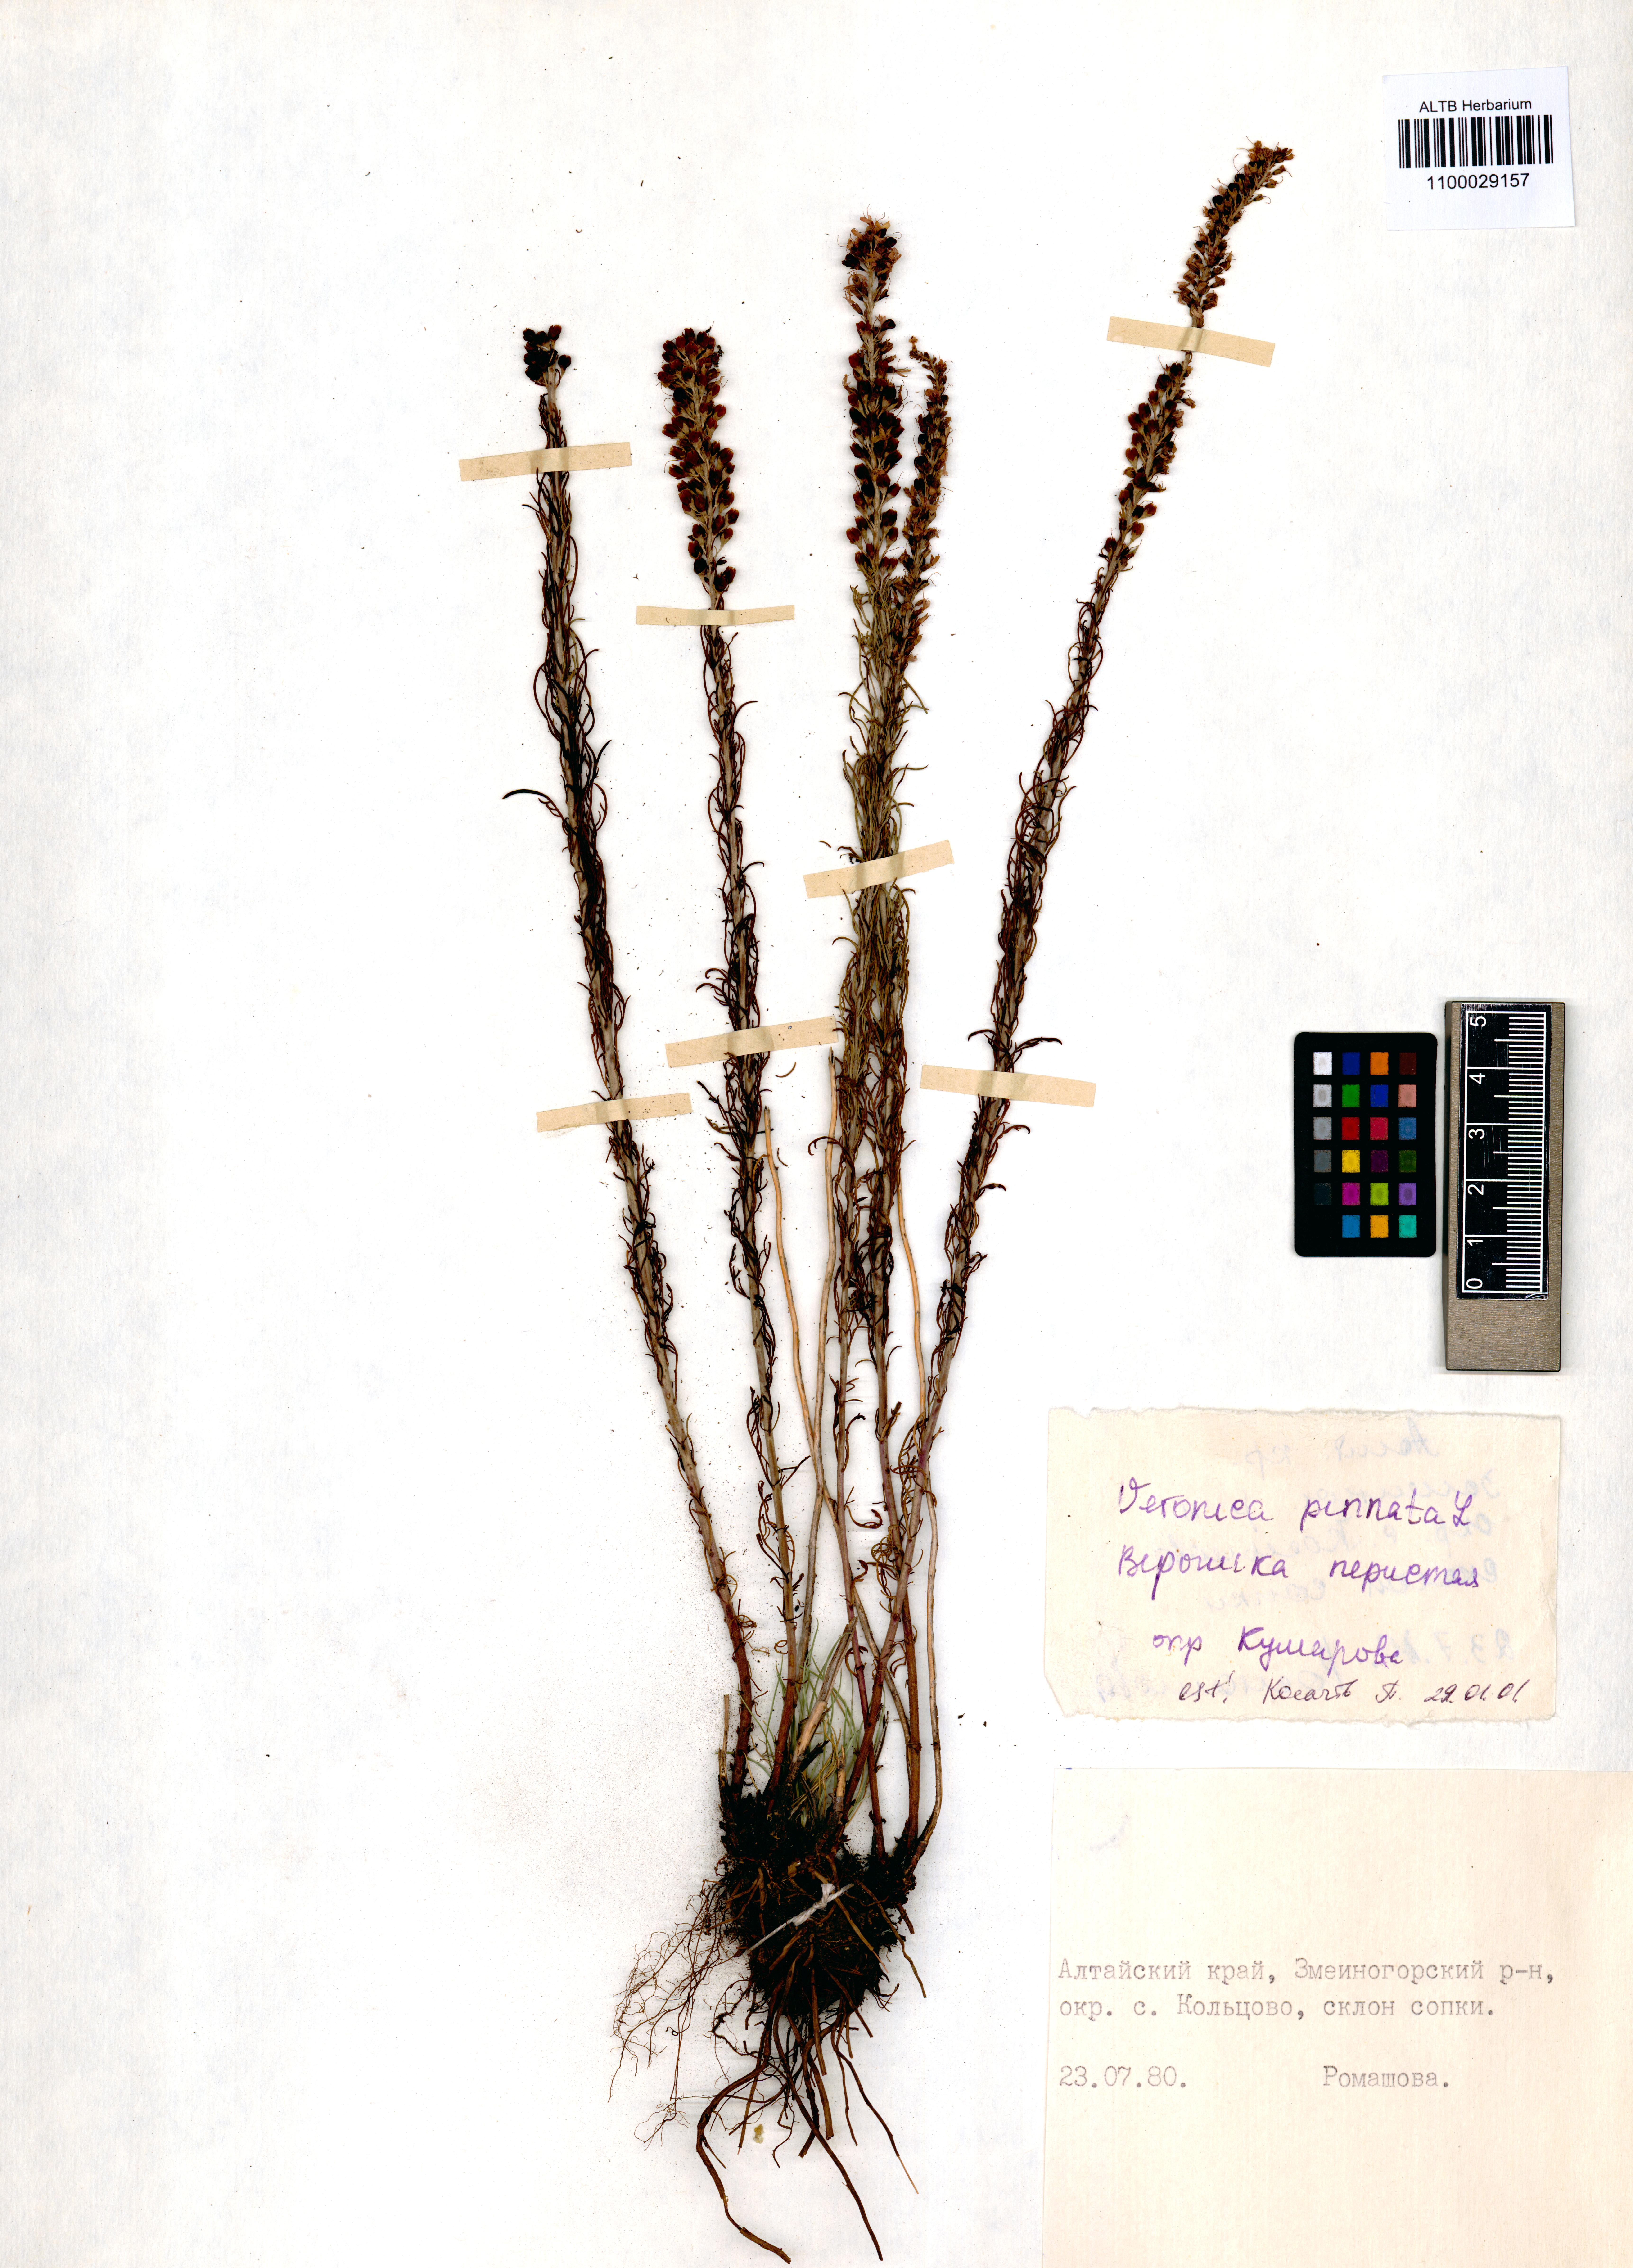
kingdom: Plantae
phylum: Tracheophyta
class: Magnoliopsida
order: Lamiales
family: Plantaginaceae
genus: Veronica
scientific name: Veronica pinnata
